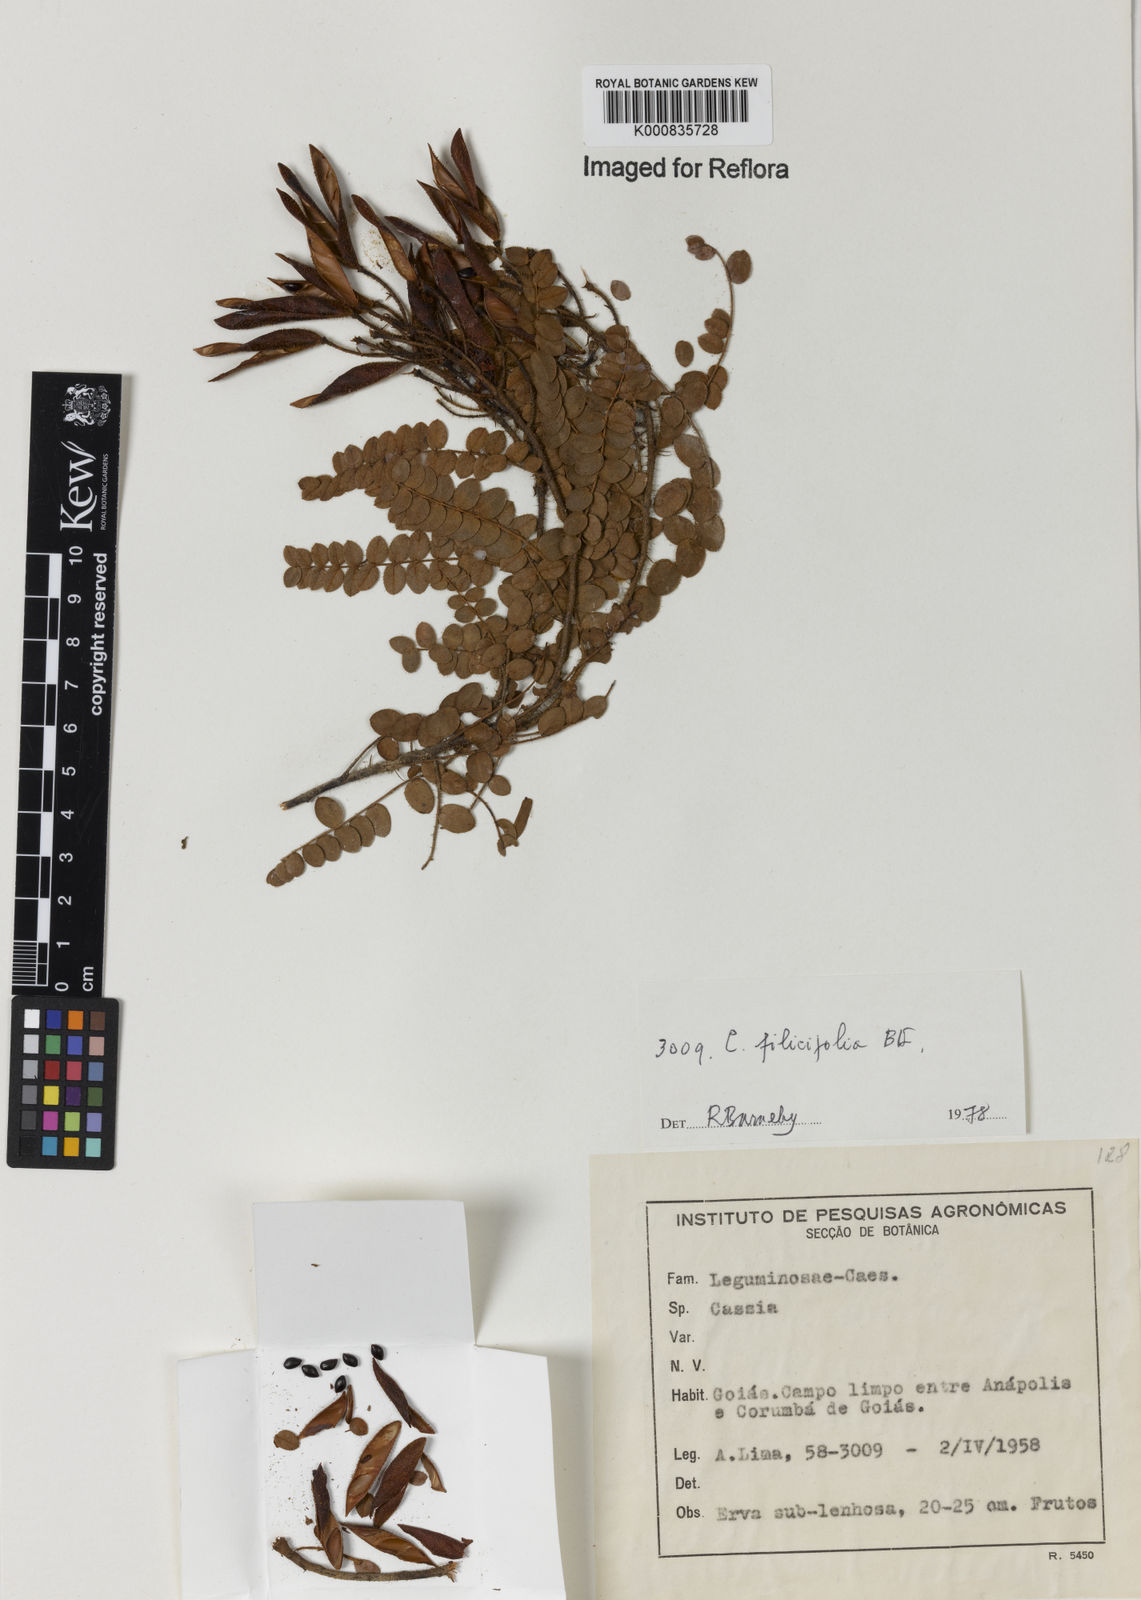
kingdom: Plantae
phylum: Tracheophyta
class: Magnoliopsida
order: Fabales
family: Fabaceae
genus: Chamaecrista
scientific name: Chamaecrista filicifolia
